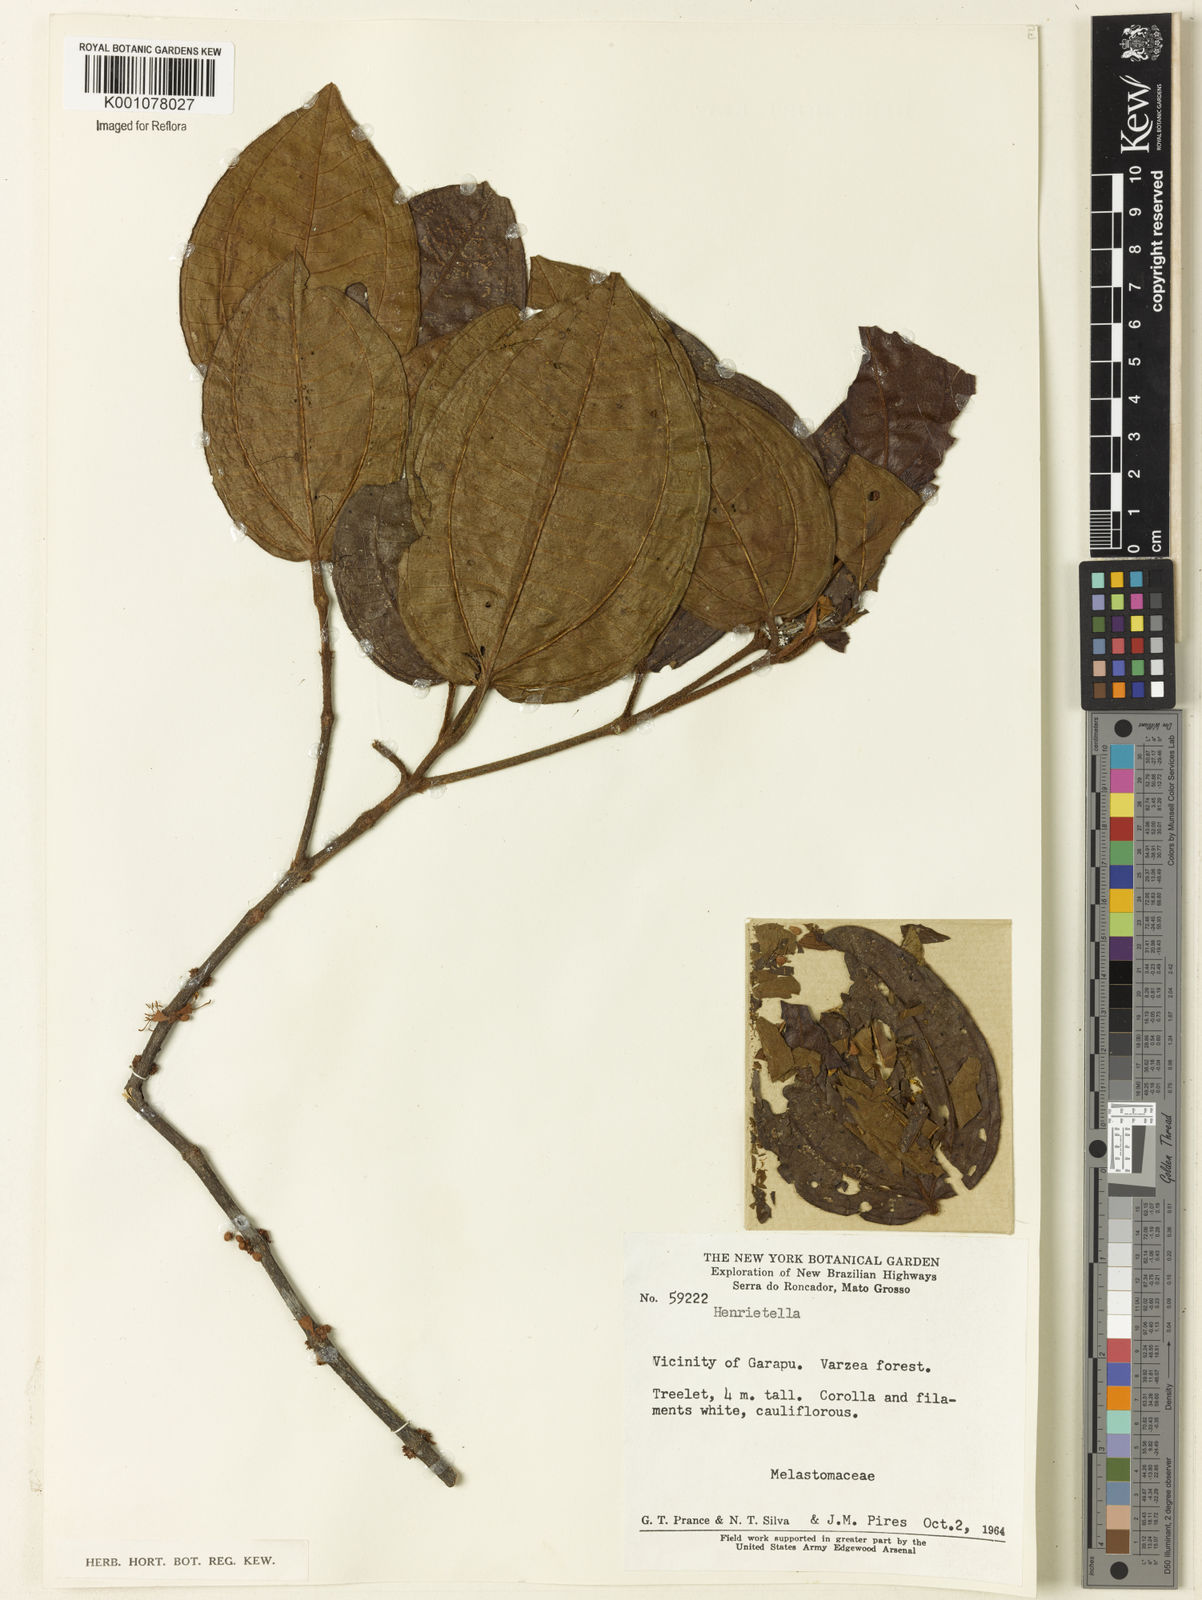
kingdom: Plantae
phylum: Tracheophyta
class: Magnoliopsida
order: Myrtales
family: Melastomataceae
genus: Henriettea
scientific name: Henriettea
